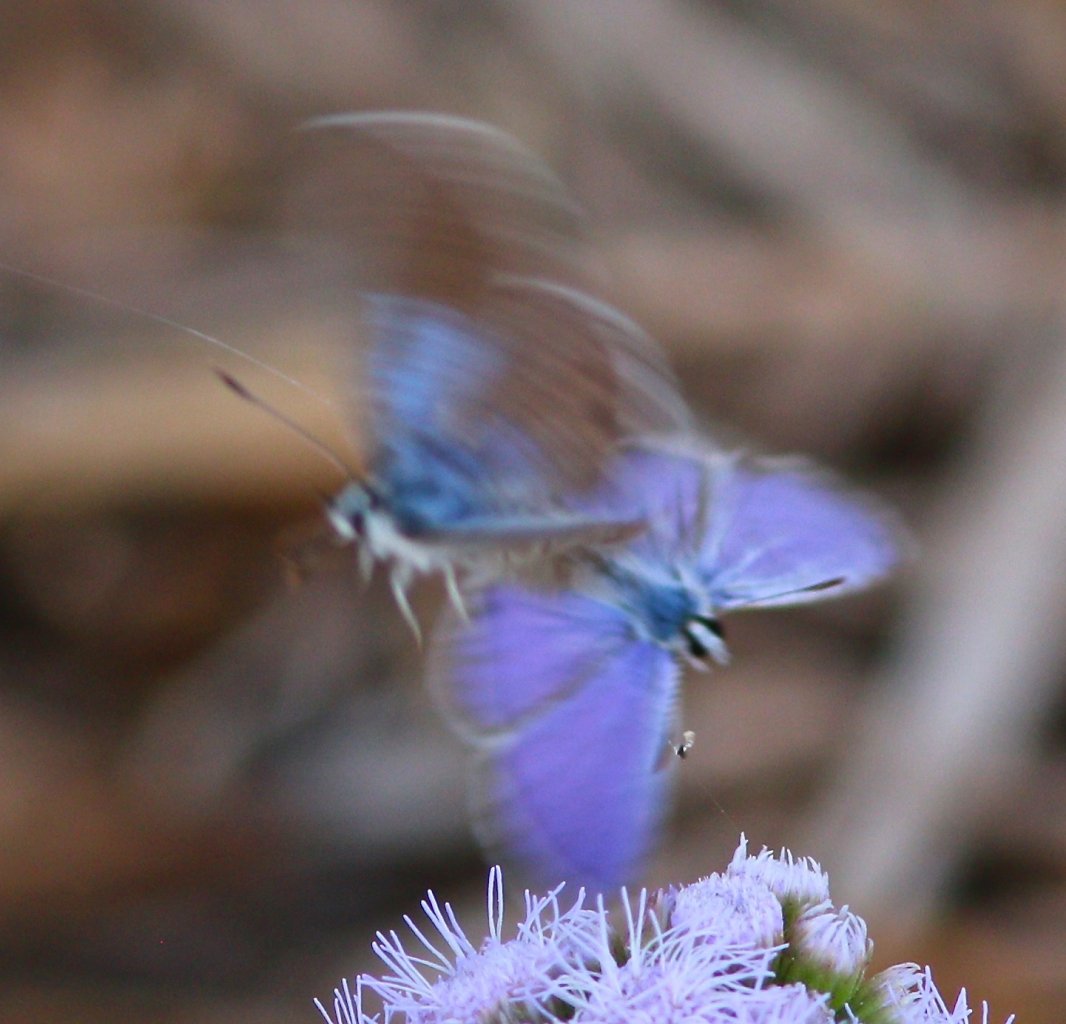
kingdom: Animalia
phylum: Arthropoda
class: Insecta
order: Lepidoptera
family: Lycaenidae
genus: Hemiargus
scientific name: Hemiargus ceraunus
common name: Ceraunus Blue
